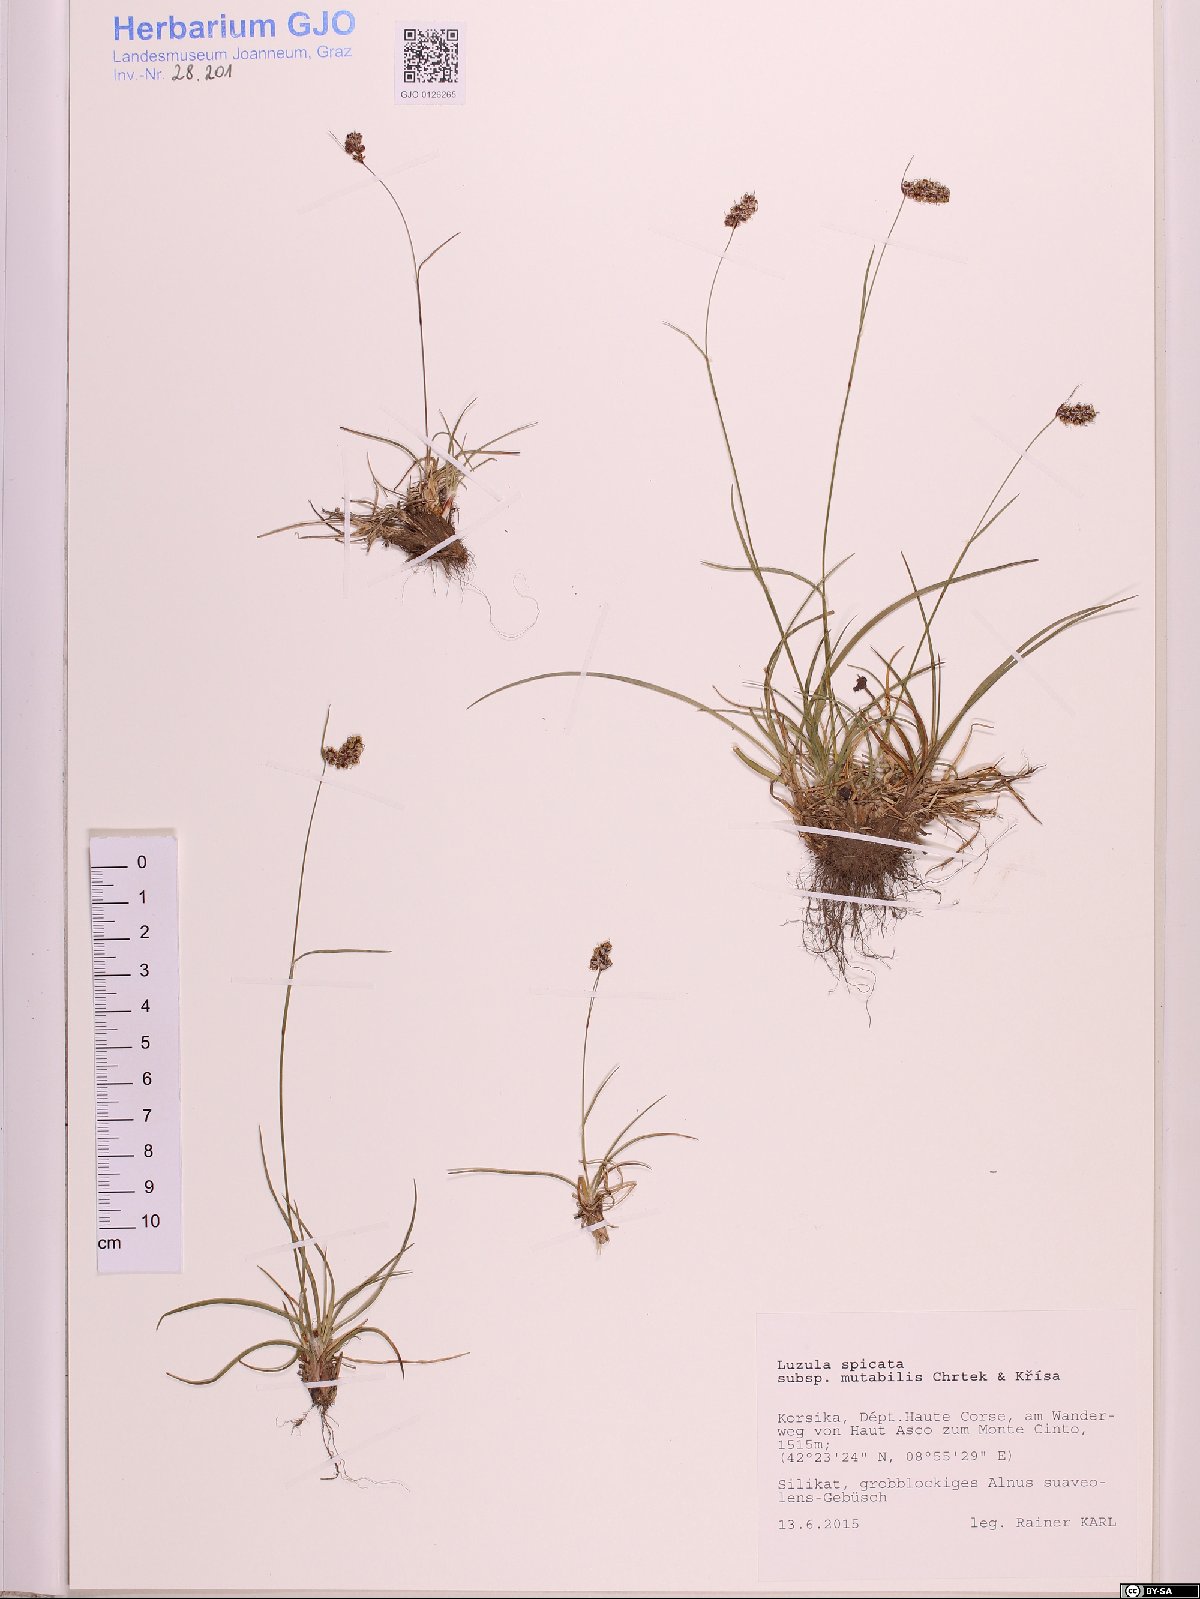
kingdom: Plantae
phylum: Tracheophyta
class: Liliopsida
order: Poales
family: Juncaceae
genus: Luzula
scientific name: Luzula spicata
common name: Spiked wood-rush
